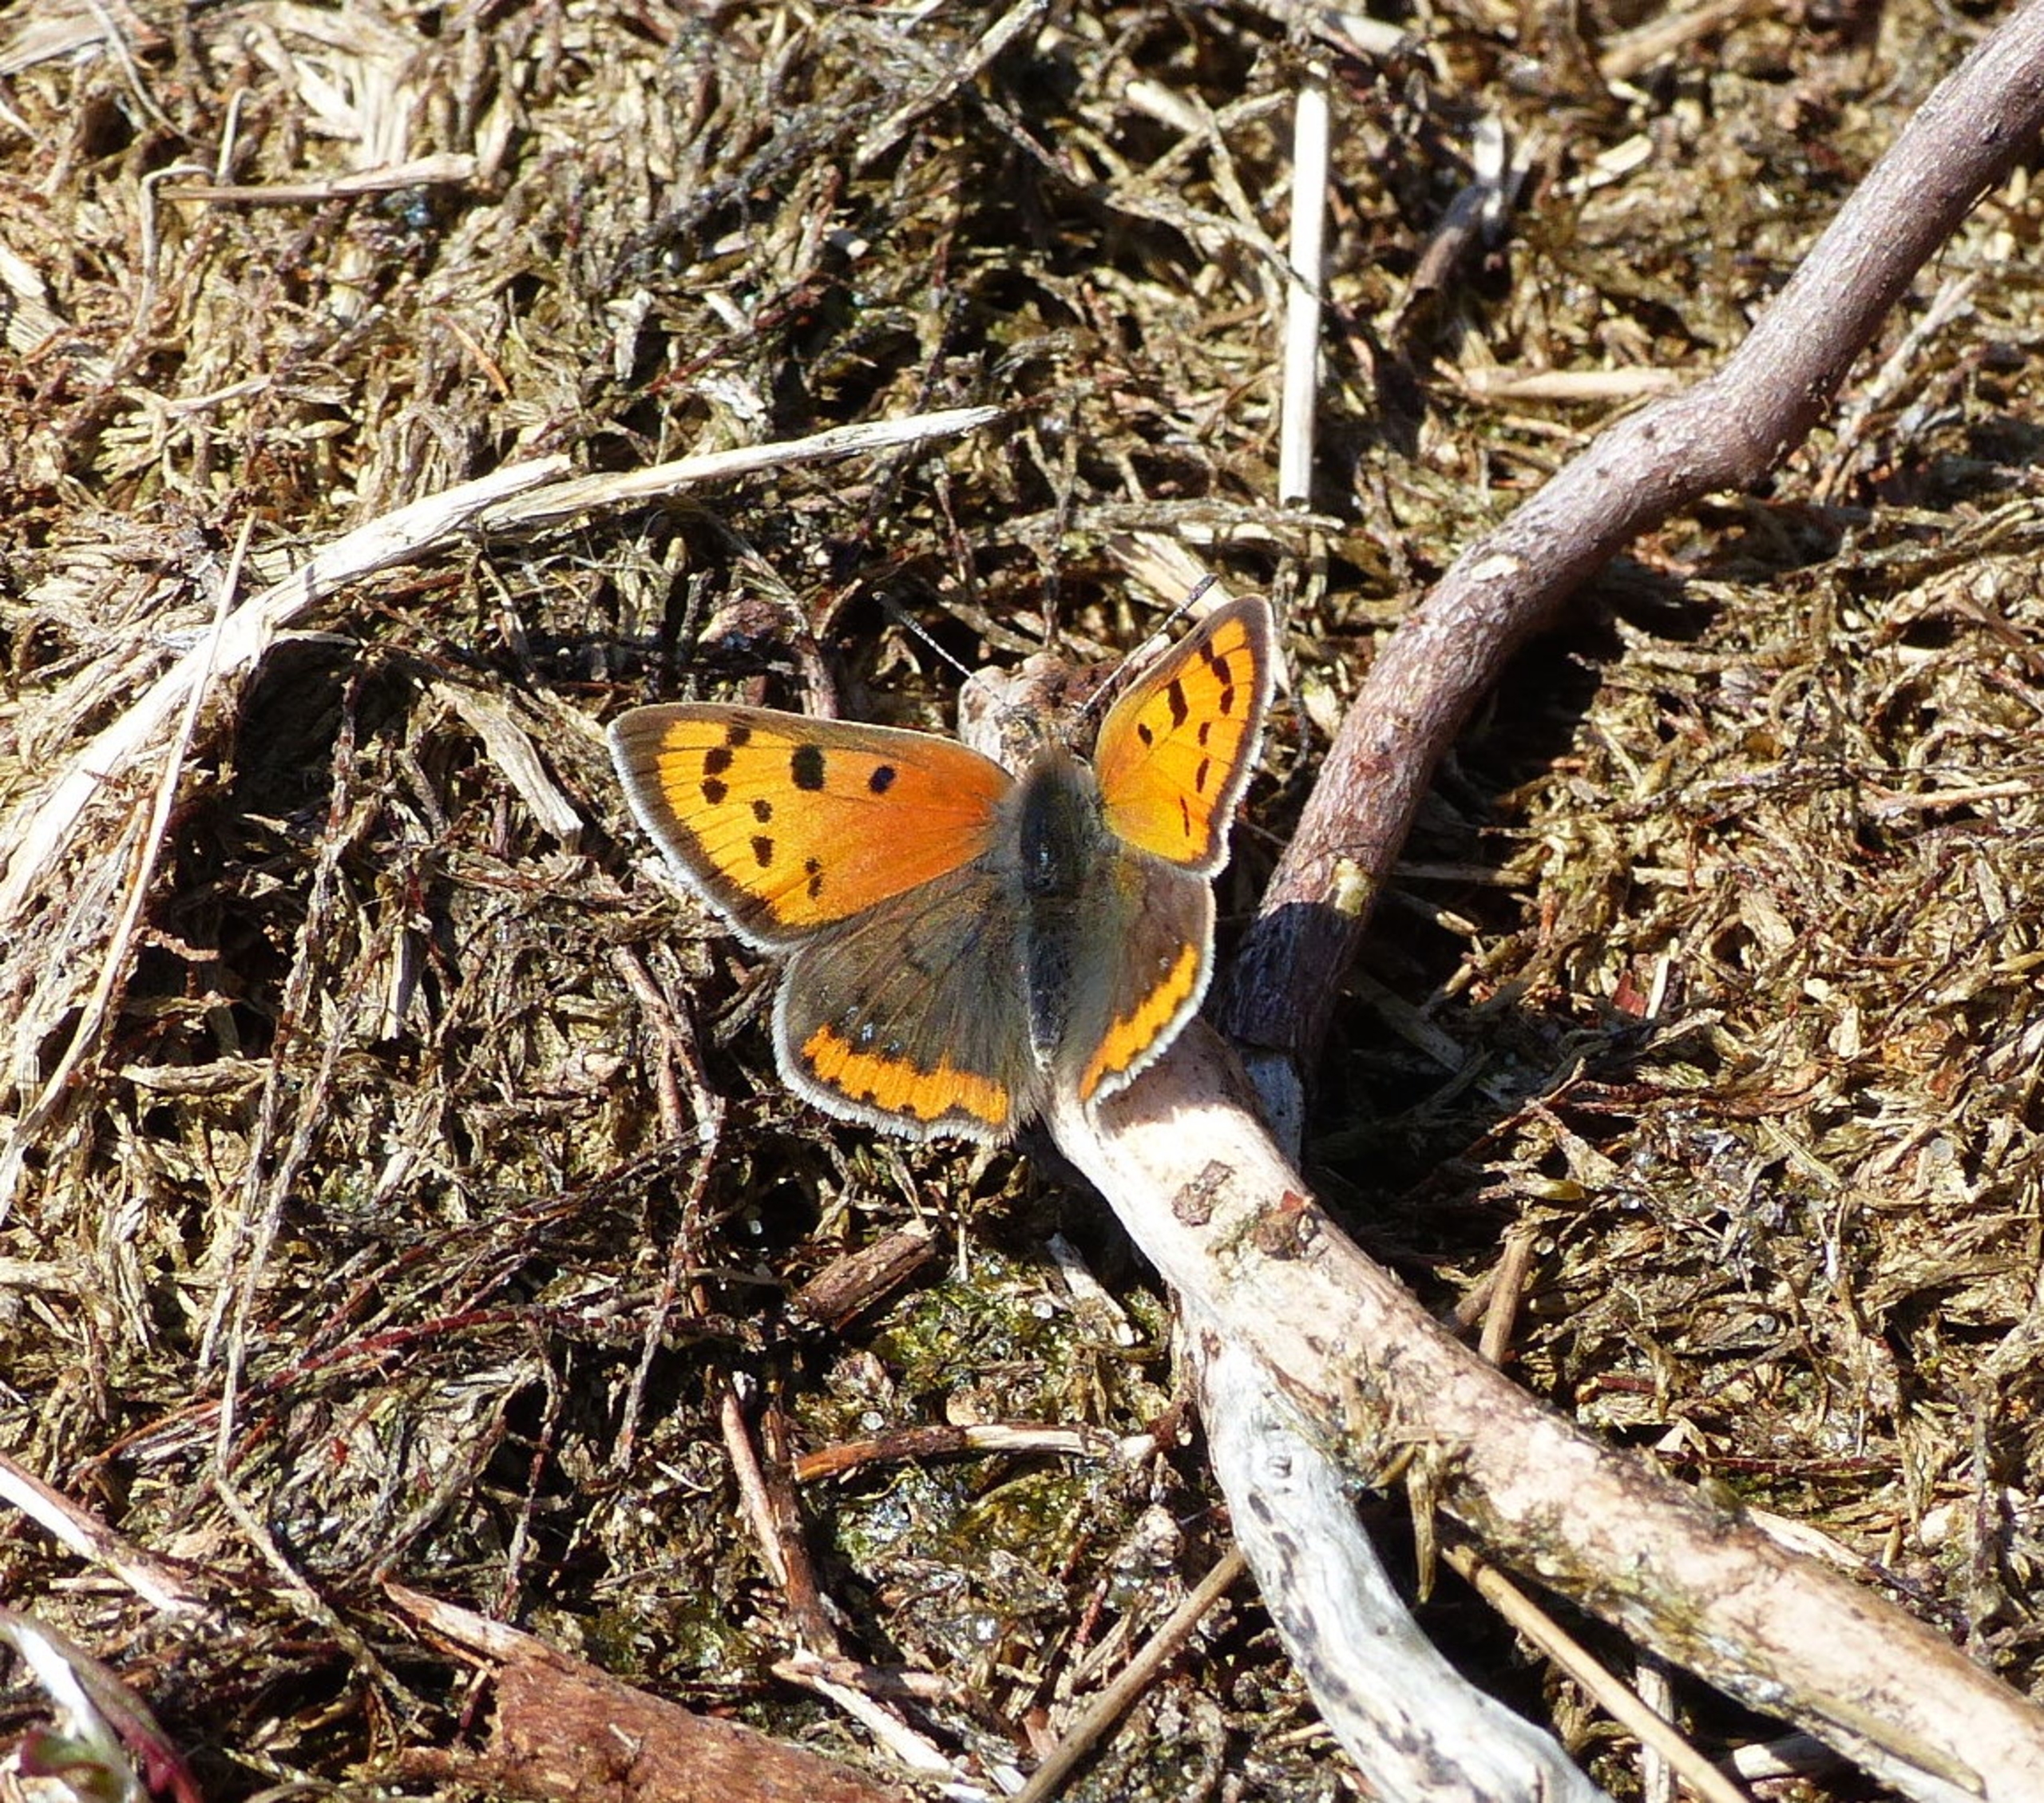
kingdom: Animalia
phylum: Arthropoda
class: Insecta
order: Lepidoptera
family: Lycaenidae
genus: Lycaena
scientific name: Lycaena phlaeas
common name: Lille ildfugl
